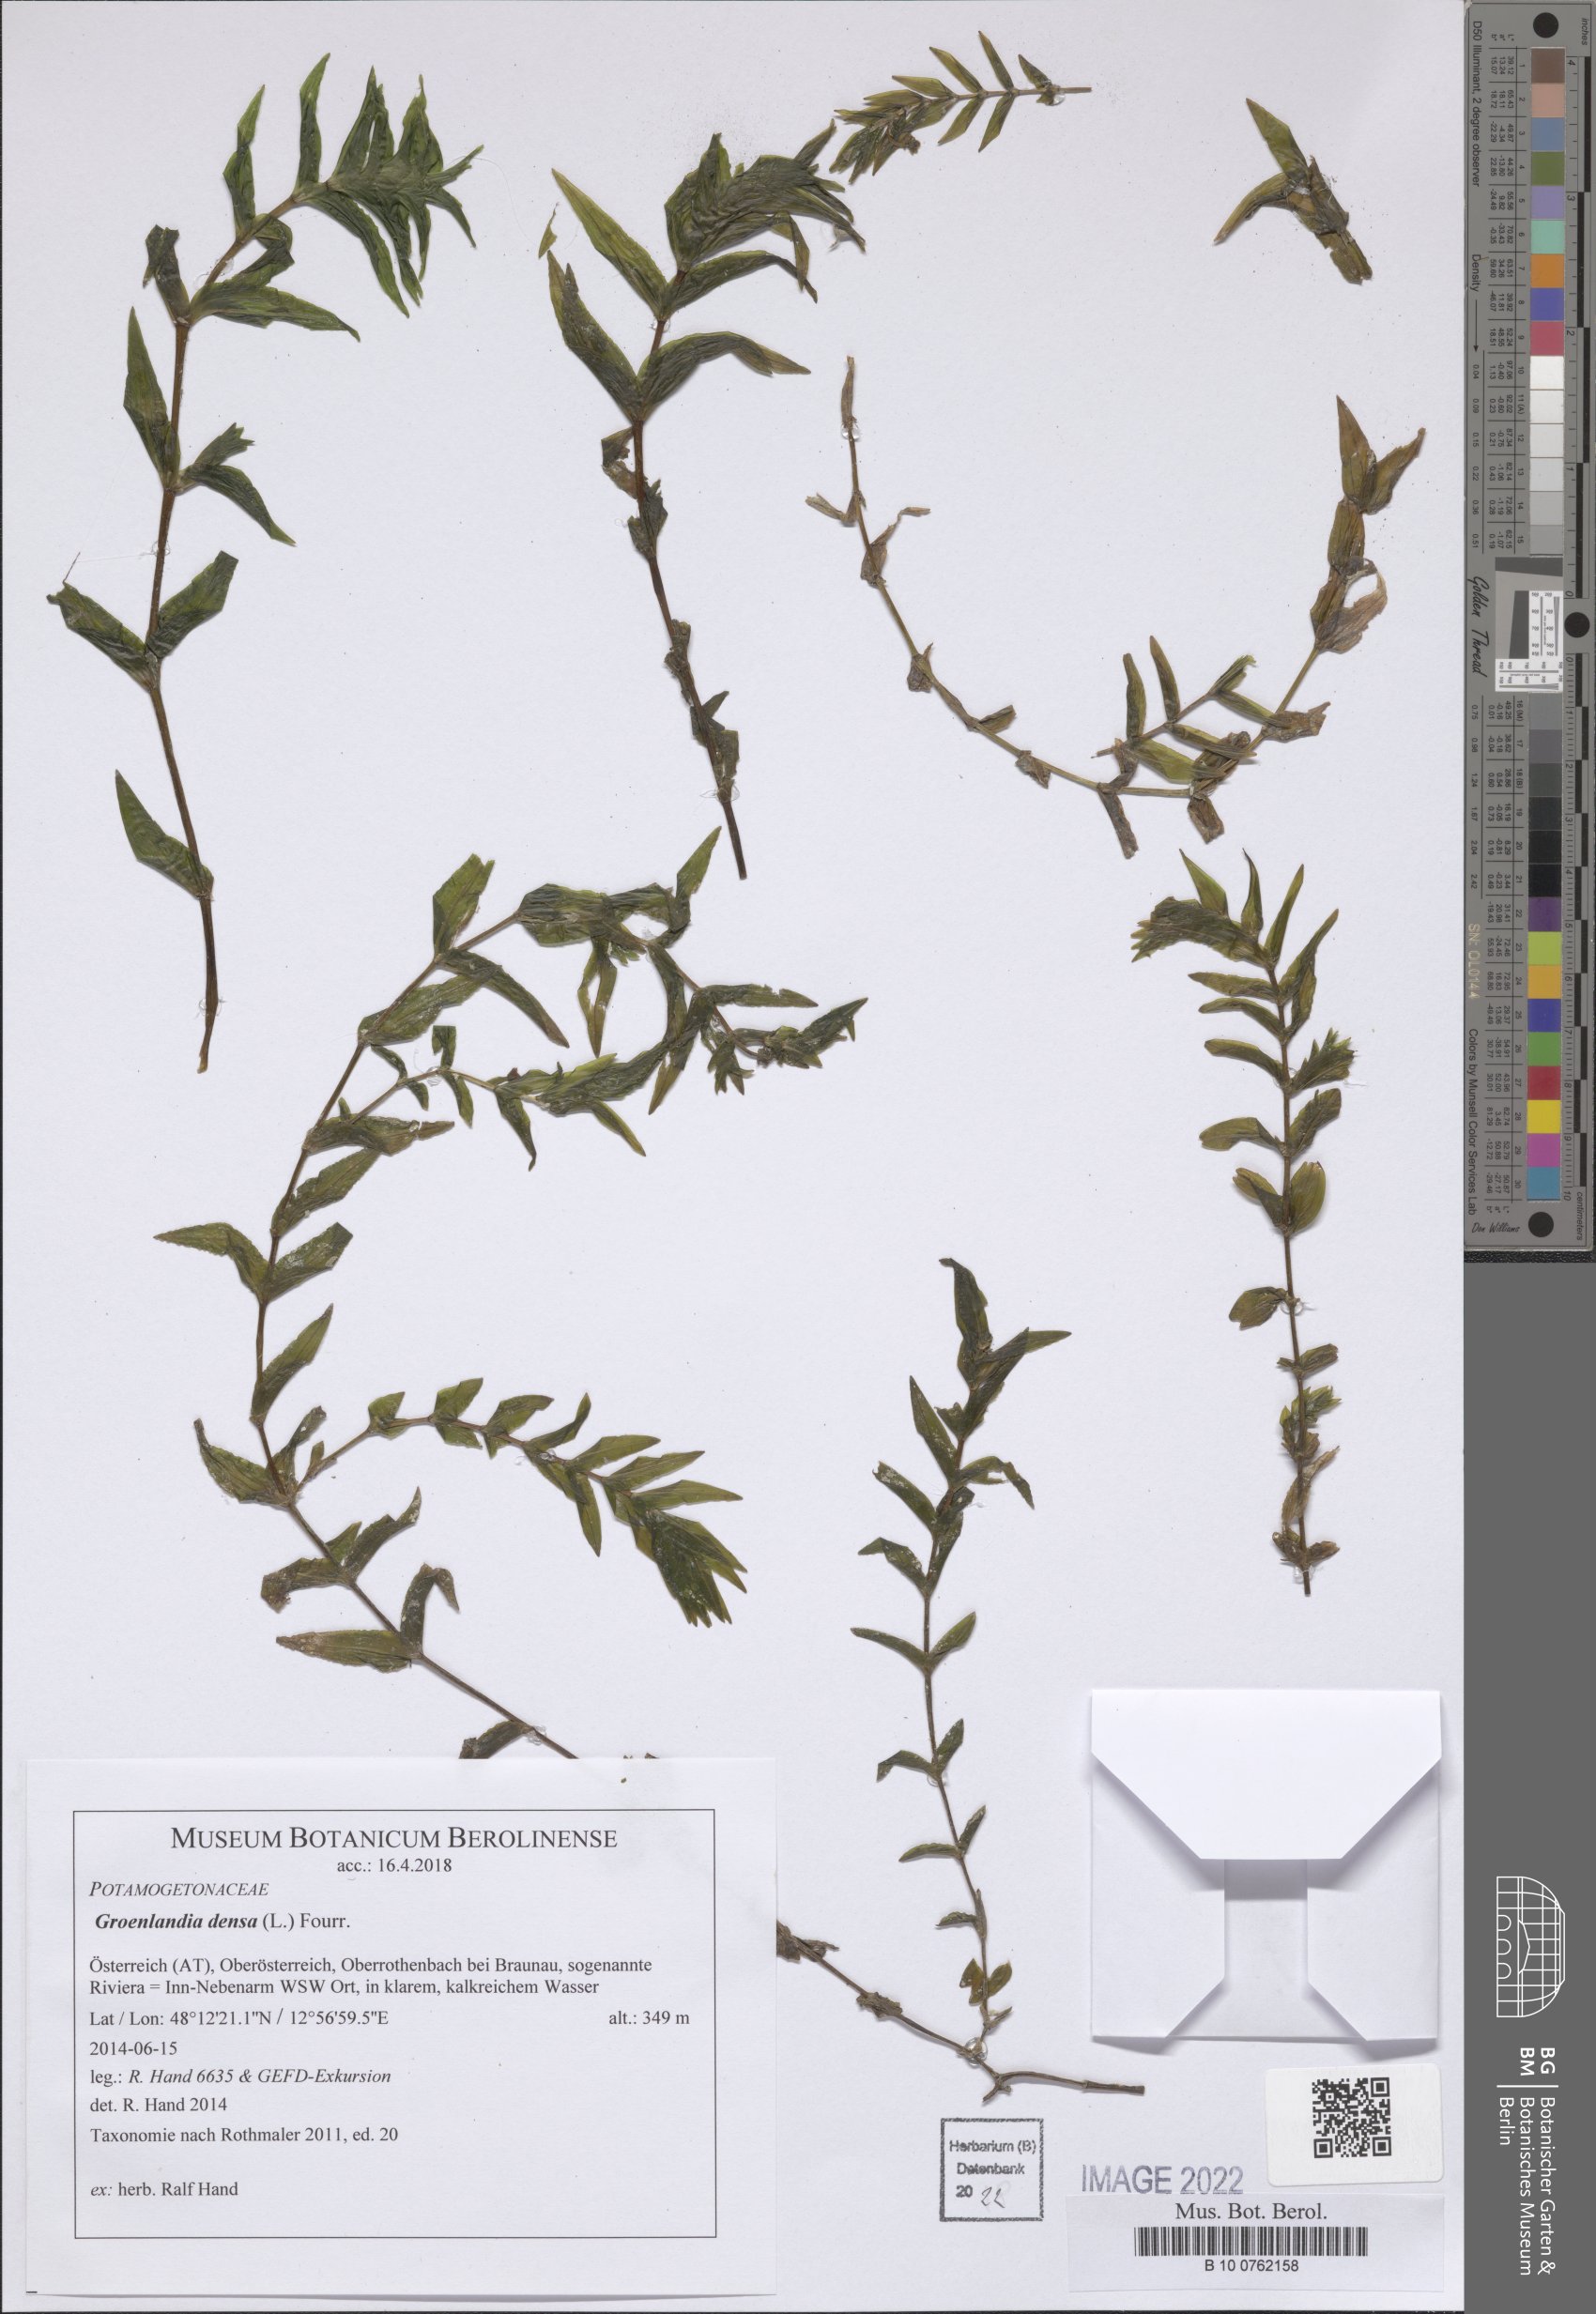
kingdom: Plantae
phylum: Tracheophyta
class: Liliopsida
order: Alismatales
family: Potamogetonaceae
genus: Groenlandia
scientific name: Groenlandia densa
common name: Opposite-leaved pondweed
